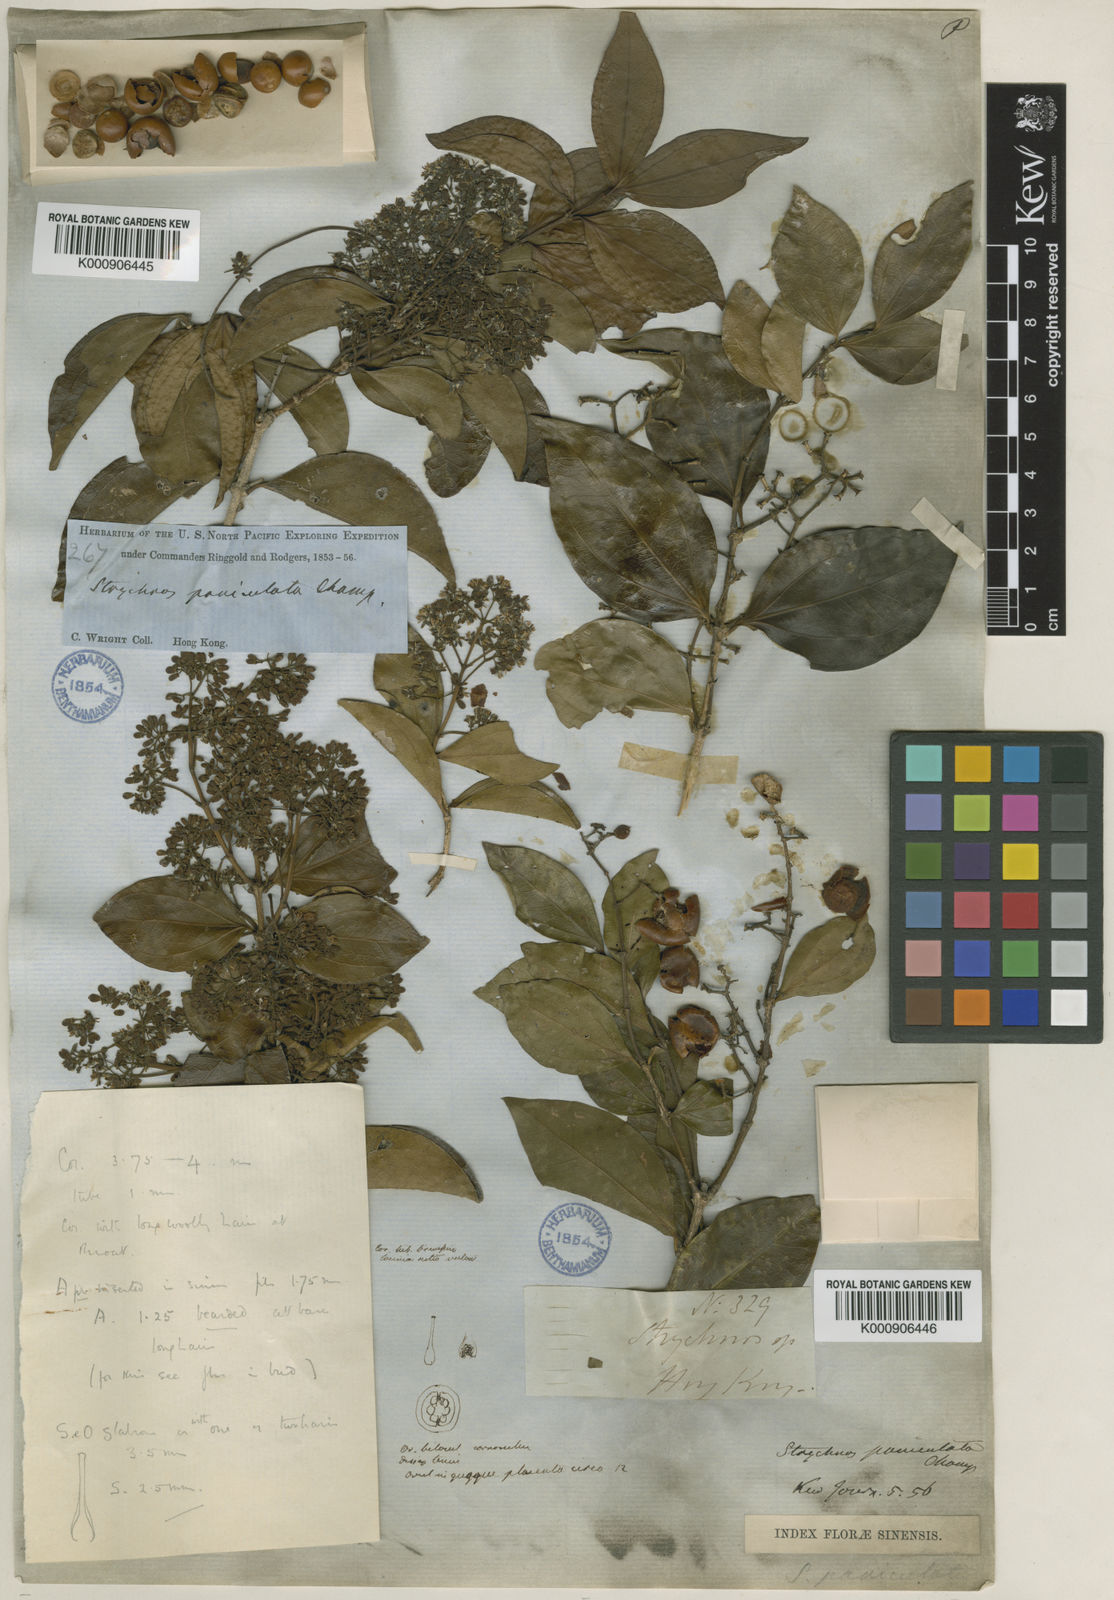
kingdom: Plantae
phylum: Tracheophyta
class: Magnoliopsida
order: Gentianales
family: Loganiaceae
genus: Strychnos
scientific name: Strychnos umbellata
